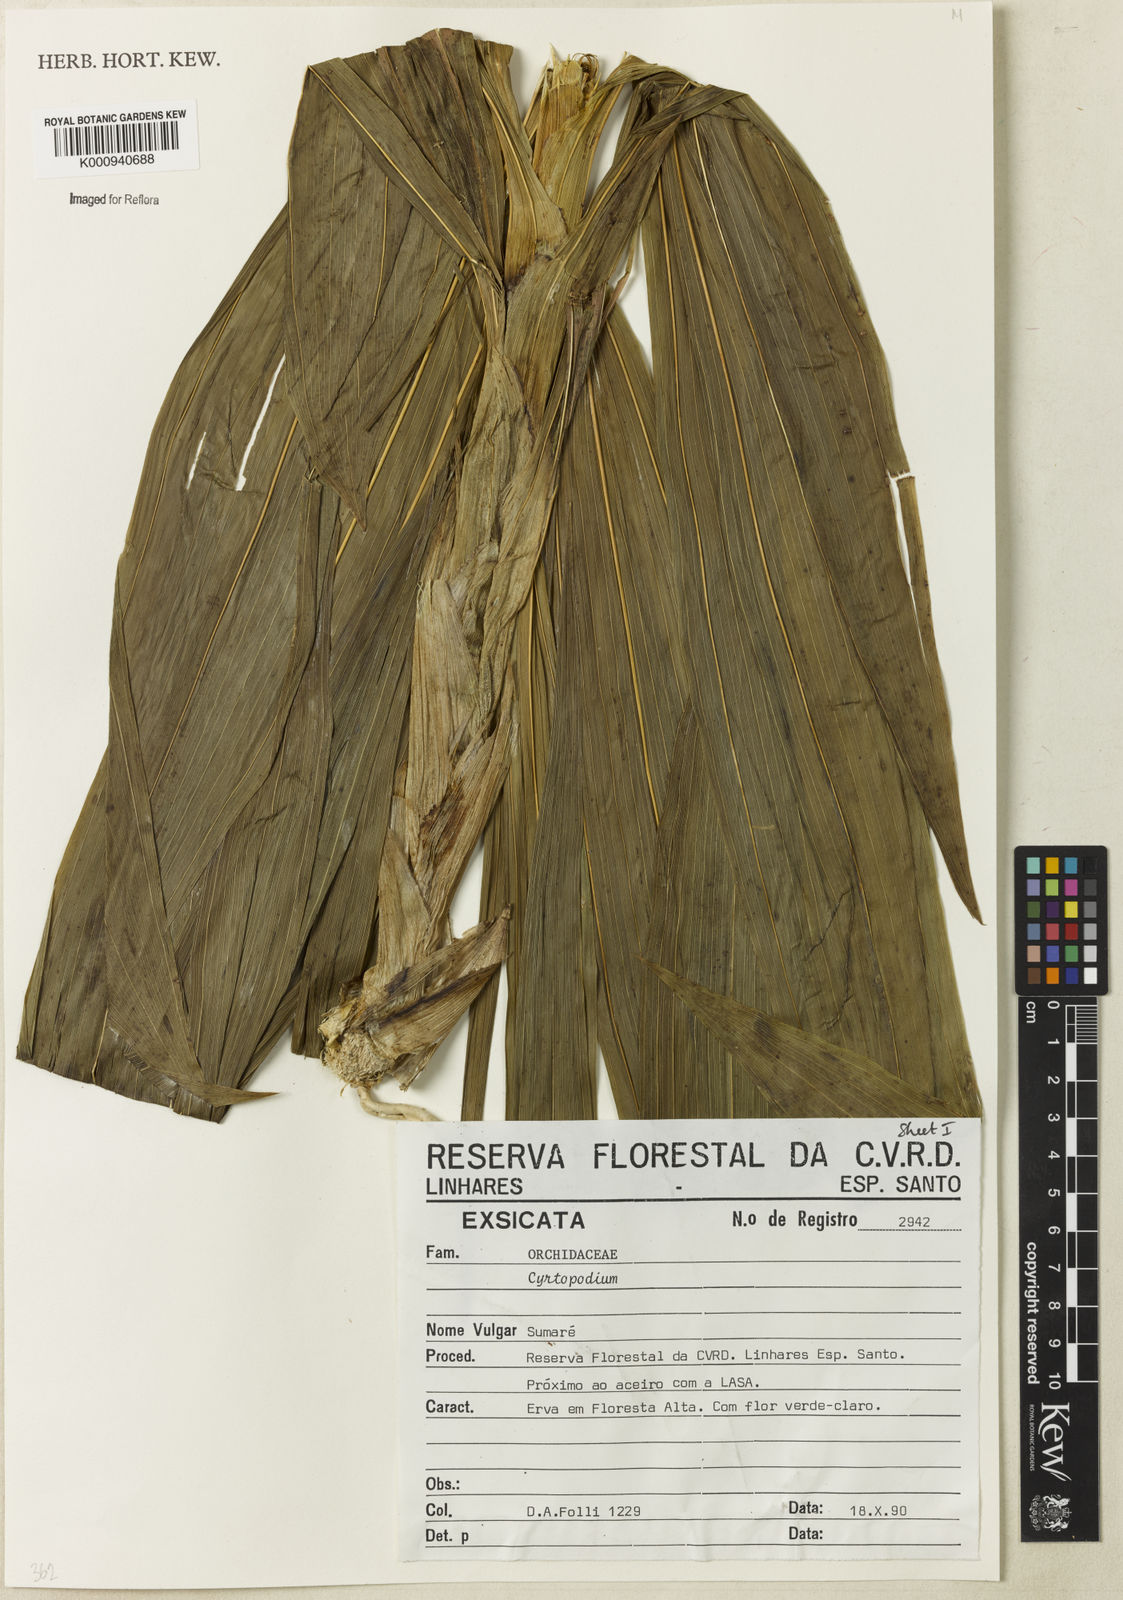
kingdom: Plantae
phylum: Tracheophyta
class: Liliopsida
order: Asparagales
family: Orchidaceae
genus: Cyrtopodium
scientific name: Cyrtopodium
